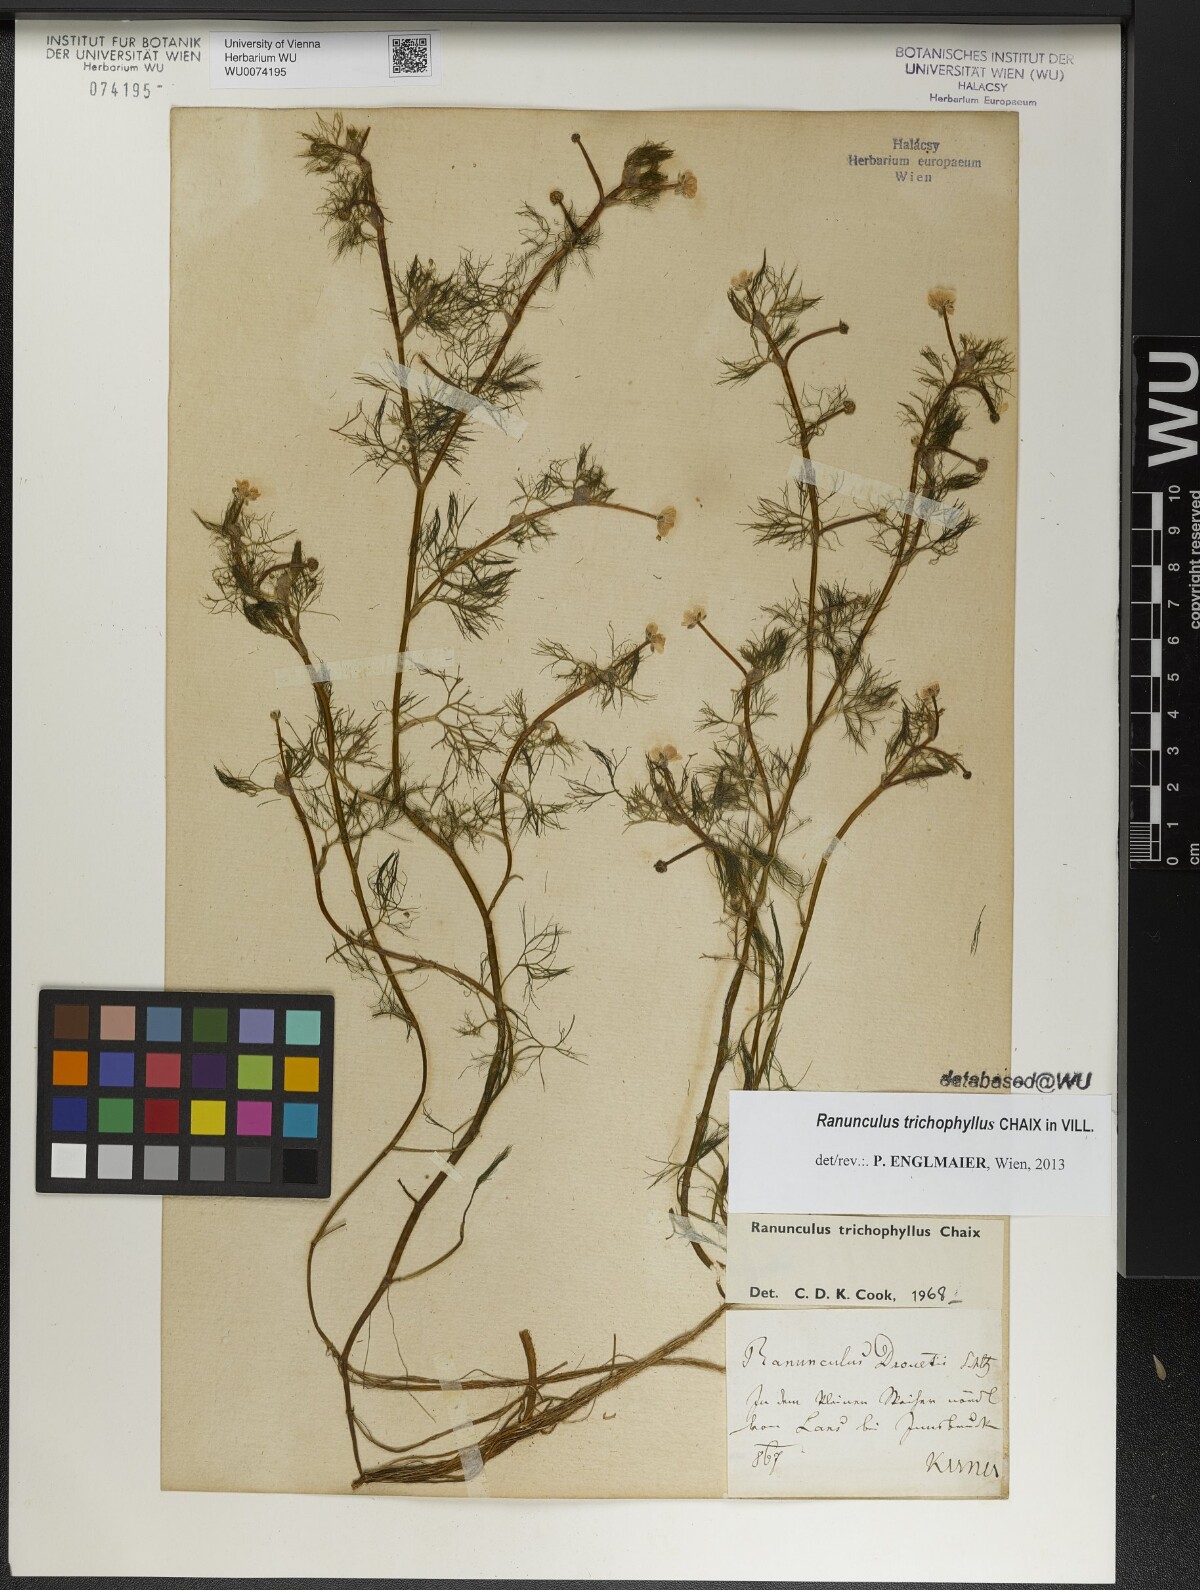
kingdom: Plantae
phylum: Tracheophyta
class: Magnoliopsida
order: Ranunculales
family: Ranunculaceae
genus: Ranunculus
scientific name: Ranunculus trichophyllus
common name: Thread-leaved water-crowfoot
